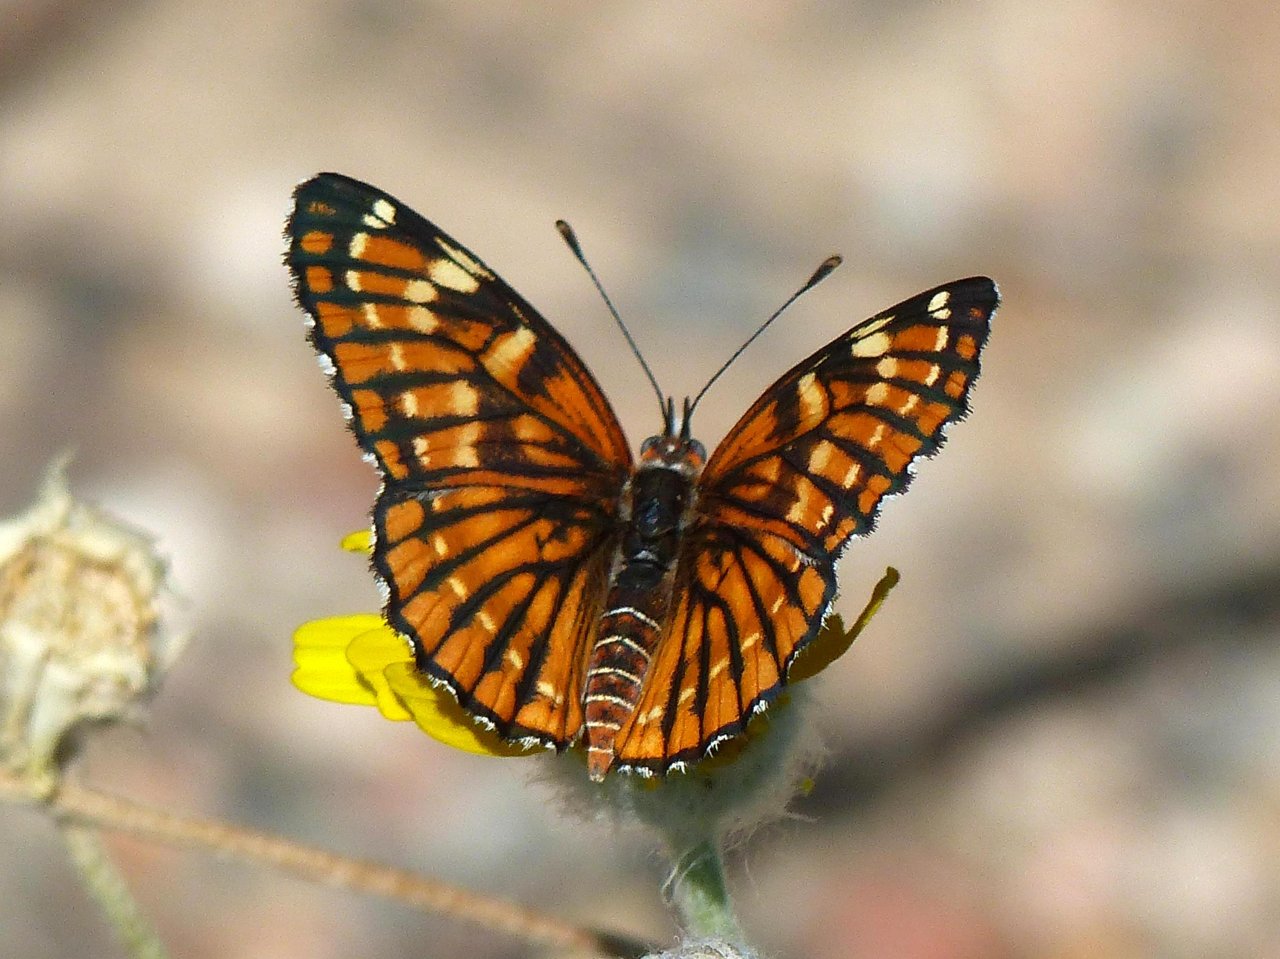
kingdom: Animalia
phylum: Arthropoda
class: Insecta
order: Lepidoptera
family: Nymphalidae
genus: Thessalia
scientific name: Thessalia leanira
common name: Fulvia Checkerspot
